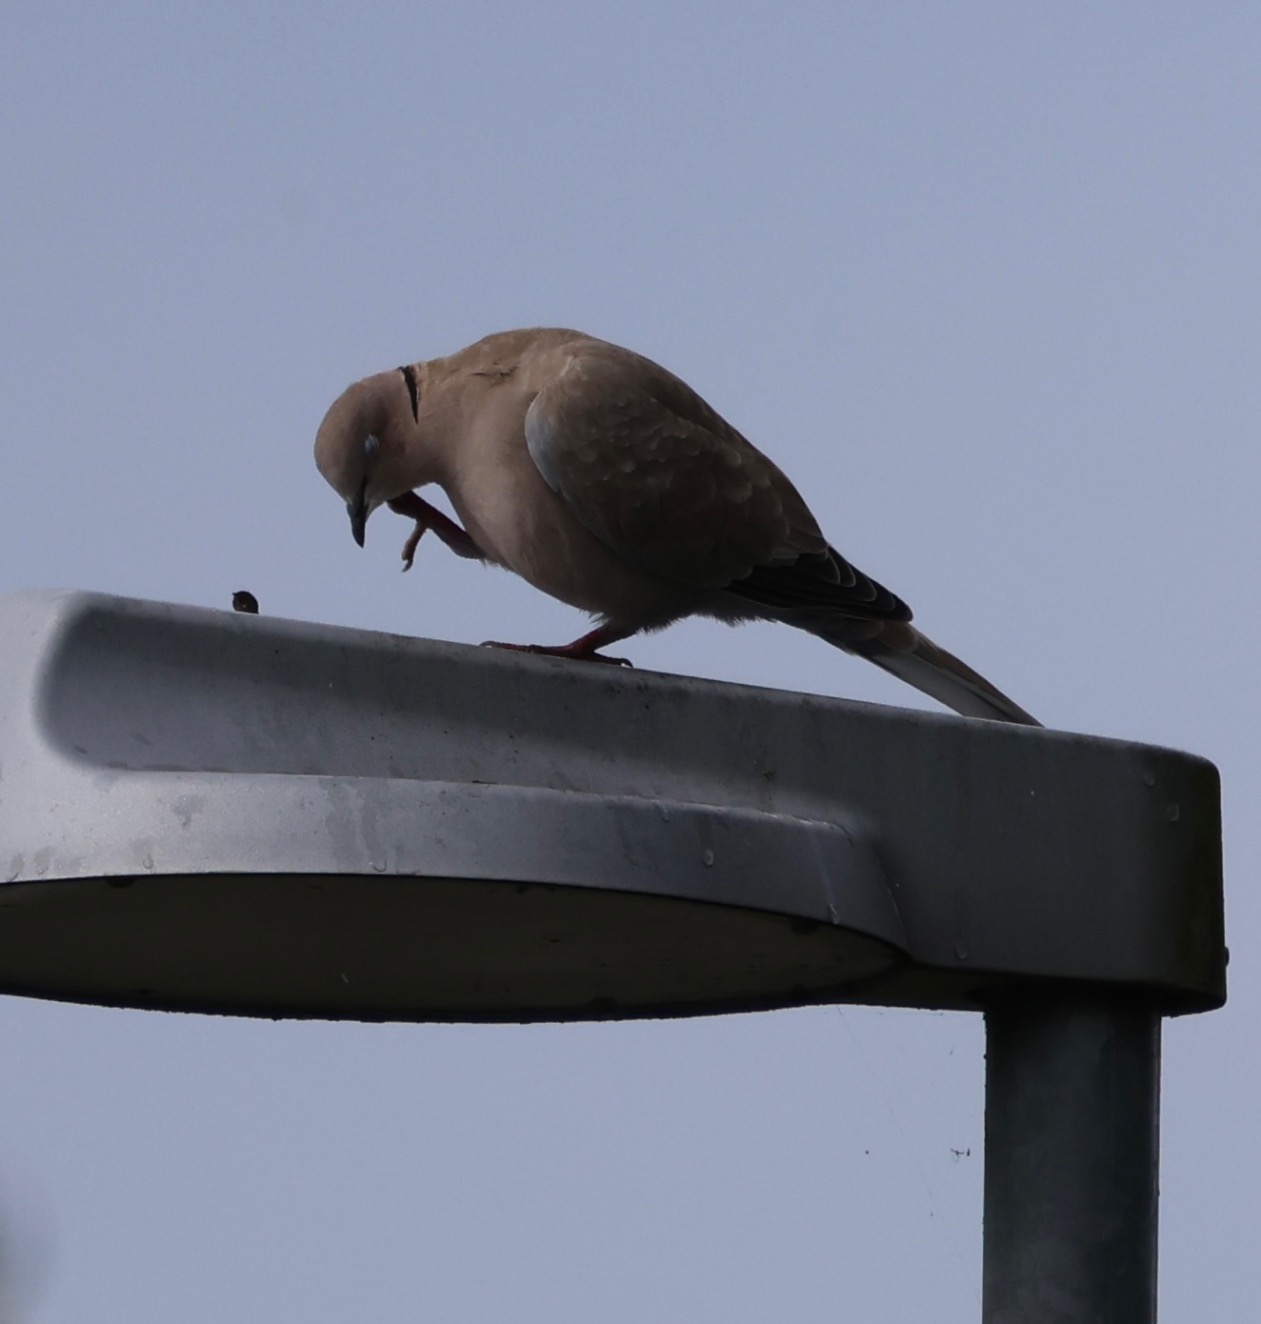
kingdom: Animalia
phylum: Chordata
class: Aves
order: Columbiformes
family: Columbidae
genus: Streptopelia
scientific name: Streptopelia decaocto
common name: Tyrkerdue
